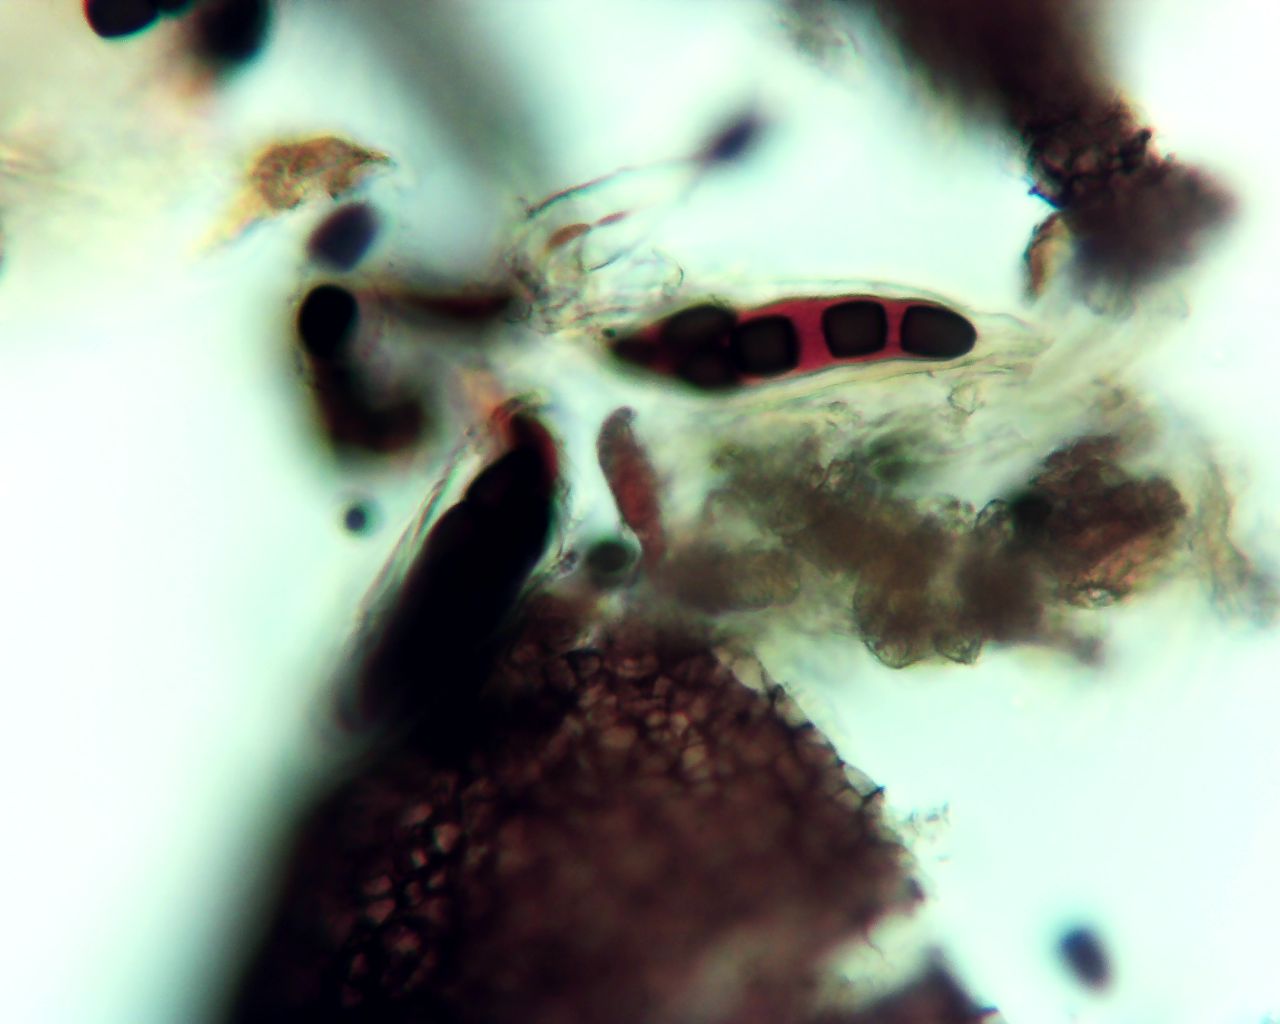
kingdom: Fungi
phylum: Ascomycota
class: Dothideomycetes
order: Pleosporales
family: Sporormiaceae
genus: Sporormiella
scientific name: Sporormiella
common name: knækspore
